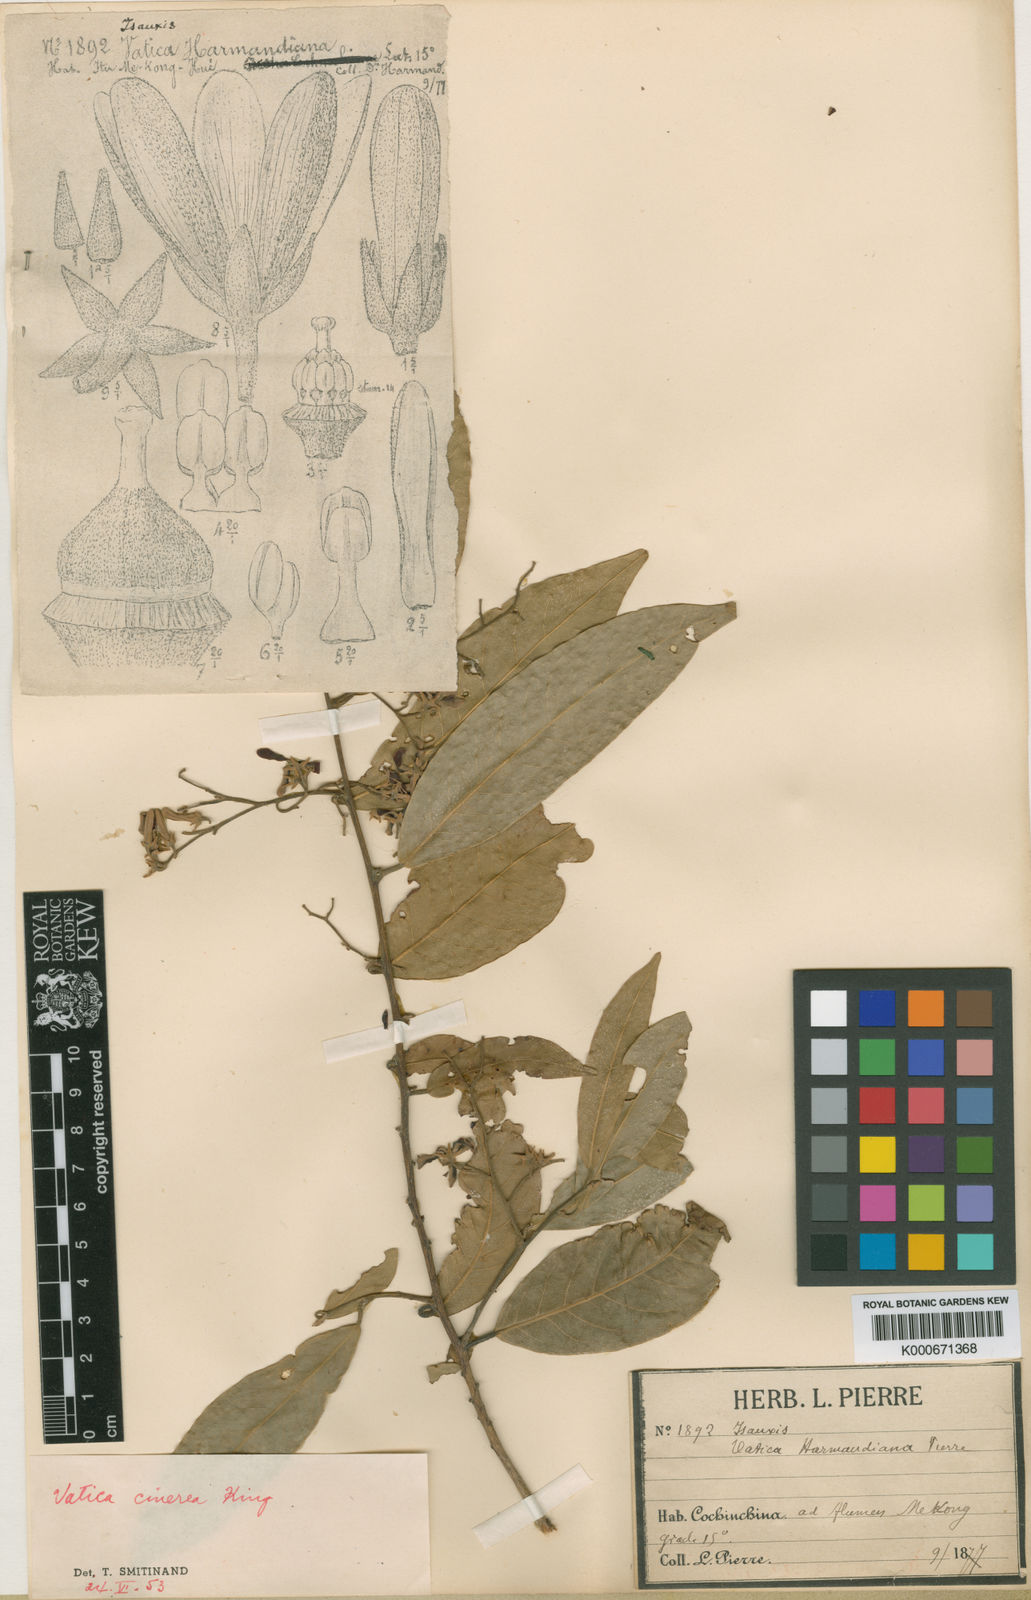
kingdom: Plantae
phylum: Tracheophyta
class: Magnoliopsida
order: Malvales
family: Dipterocarpaceae
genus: Vatica
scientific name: Vatica harmandiana
